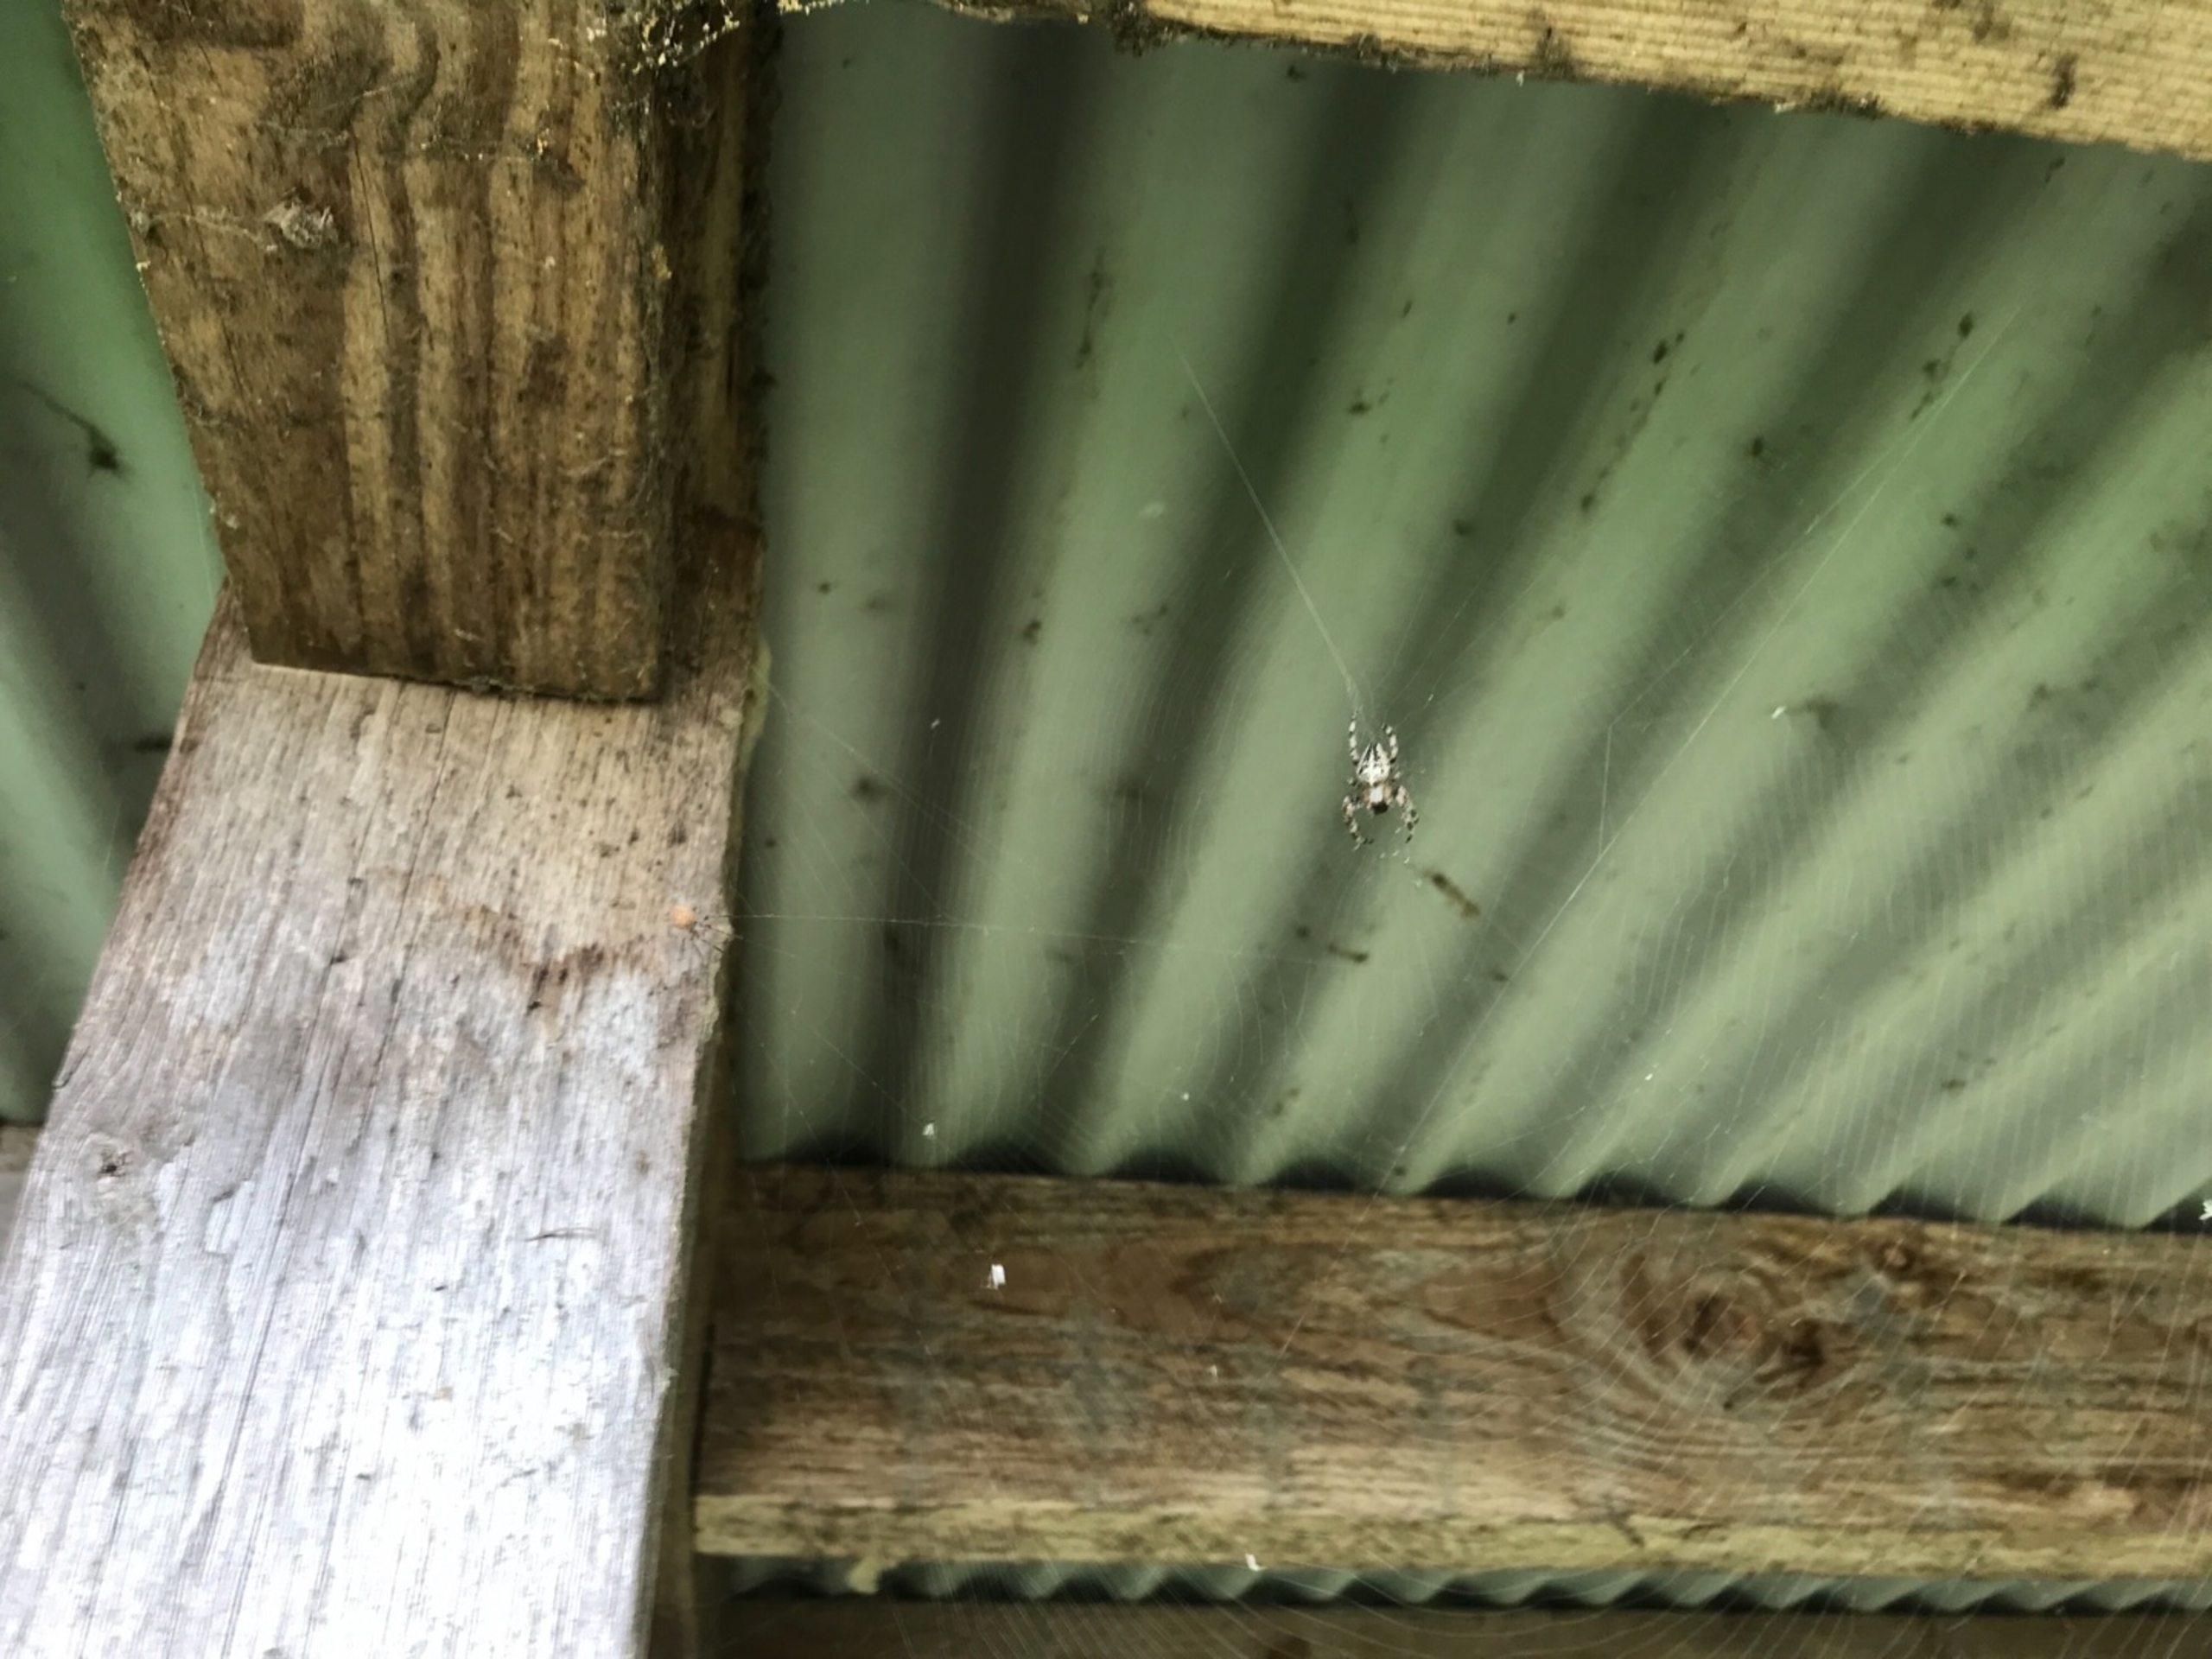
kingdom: Animalia
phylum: Arthropoda
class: Arachnida
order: Araneae
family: Araneidae
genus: Araneus
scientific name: Araneus diadematus
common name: Korsedderkop
